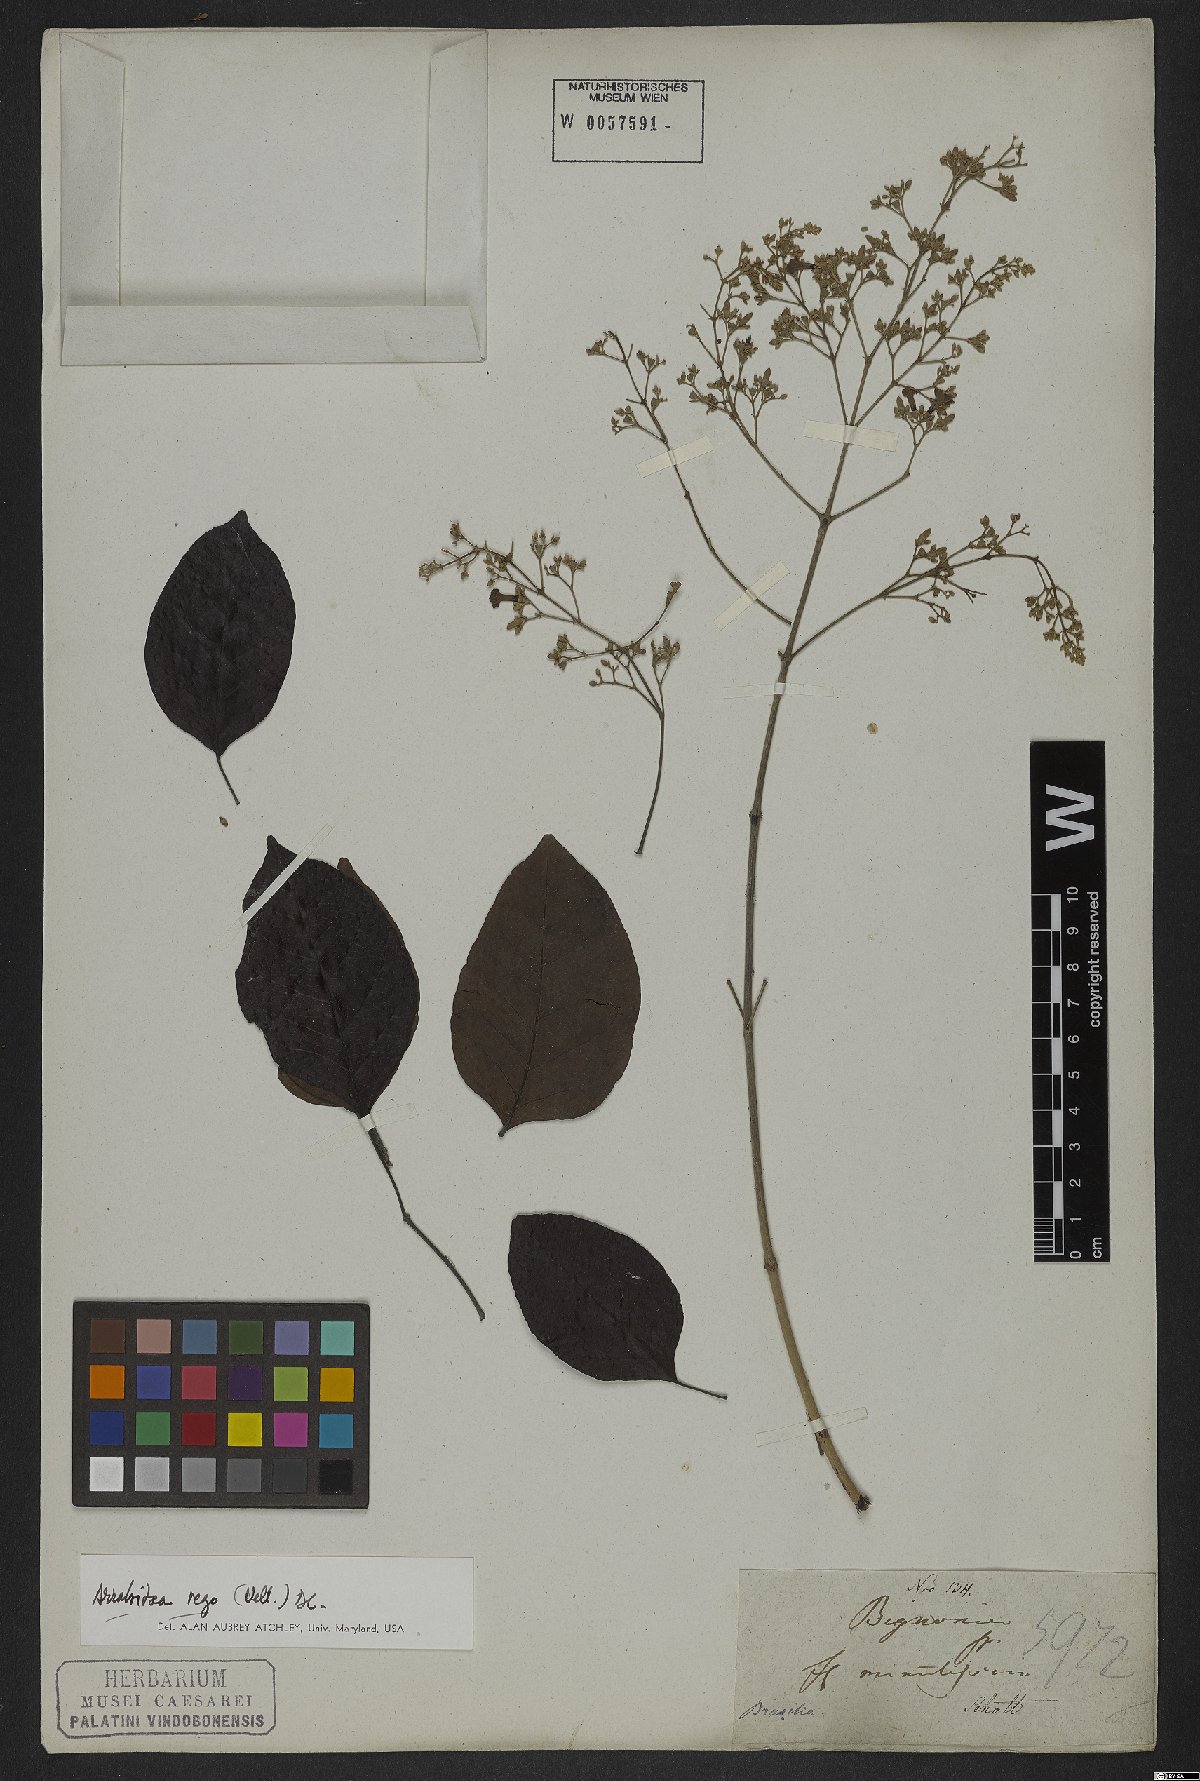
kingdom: Plantae
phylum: Tracheophyta
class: Magnoliopsida
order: Lamiales
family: Bignoniaceae
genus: Fridericia
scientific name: Fridericia rego
